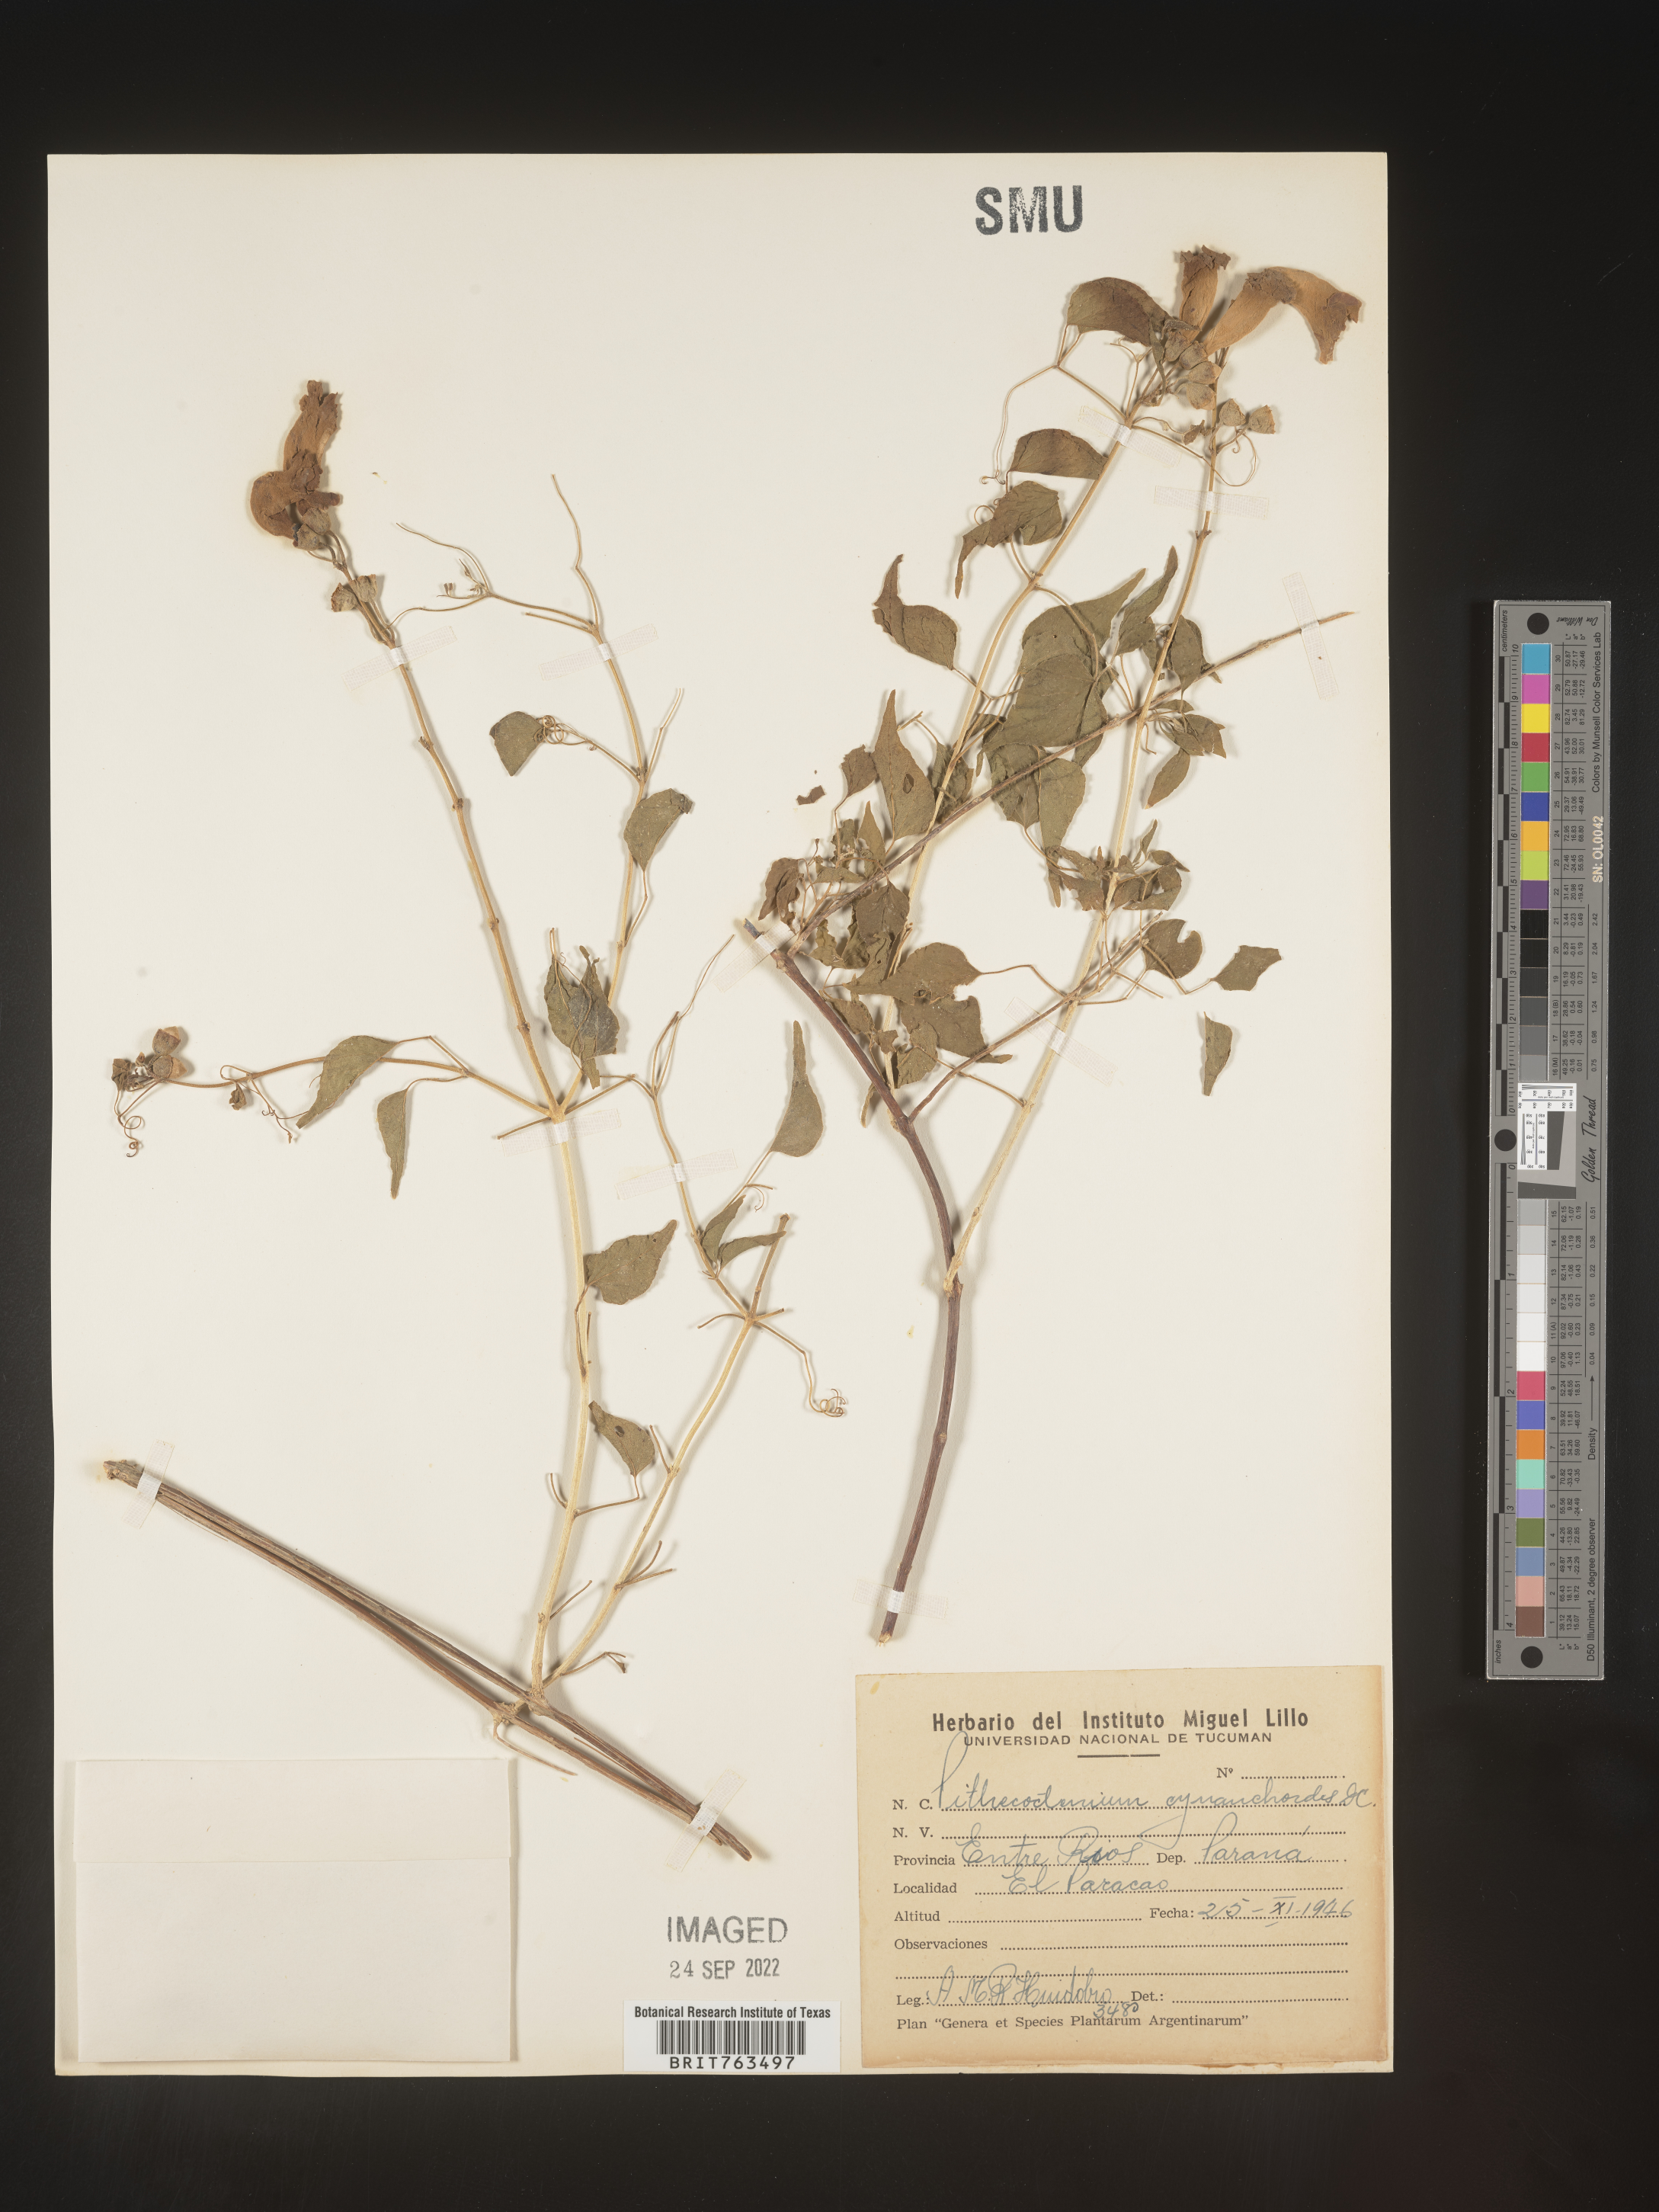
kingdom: Plantae
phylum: Tracheophyta
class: Magnoliopsida
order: Lamiales
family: Bignoniaceae
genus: Pithecoctenium
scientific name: Pithecoctenium
